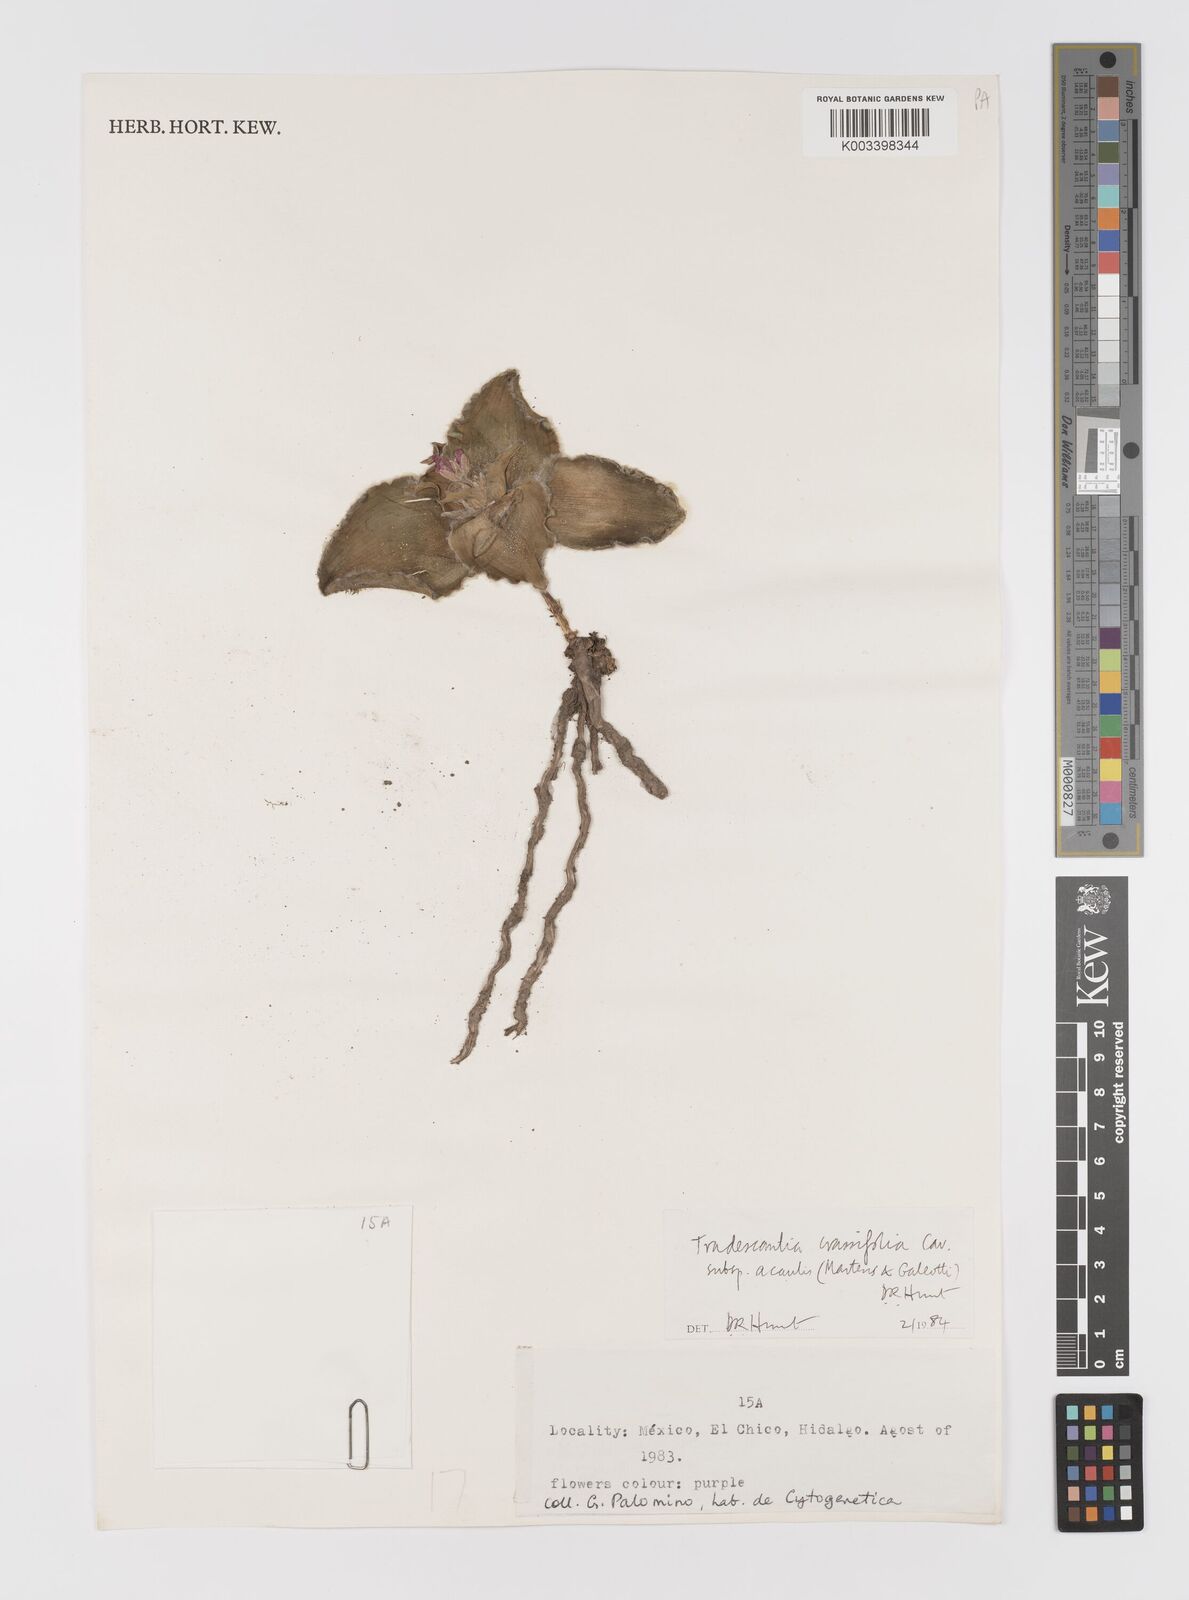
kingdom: Plantae
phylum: Tracheophyta
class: Liliopsida
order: Commelinales
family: Commelinaceae
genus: Tradescantia
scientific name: Tradescantia crassifolia
